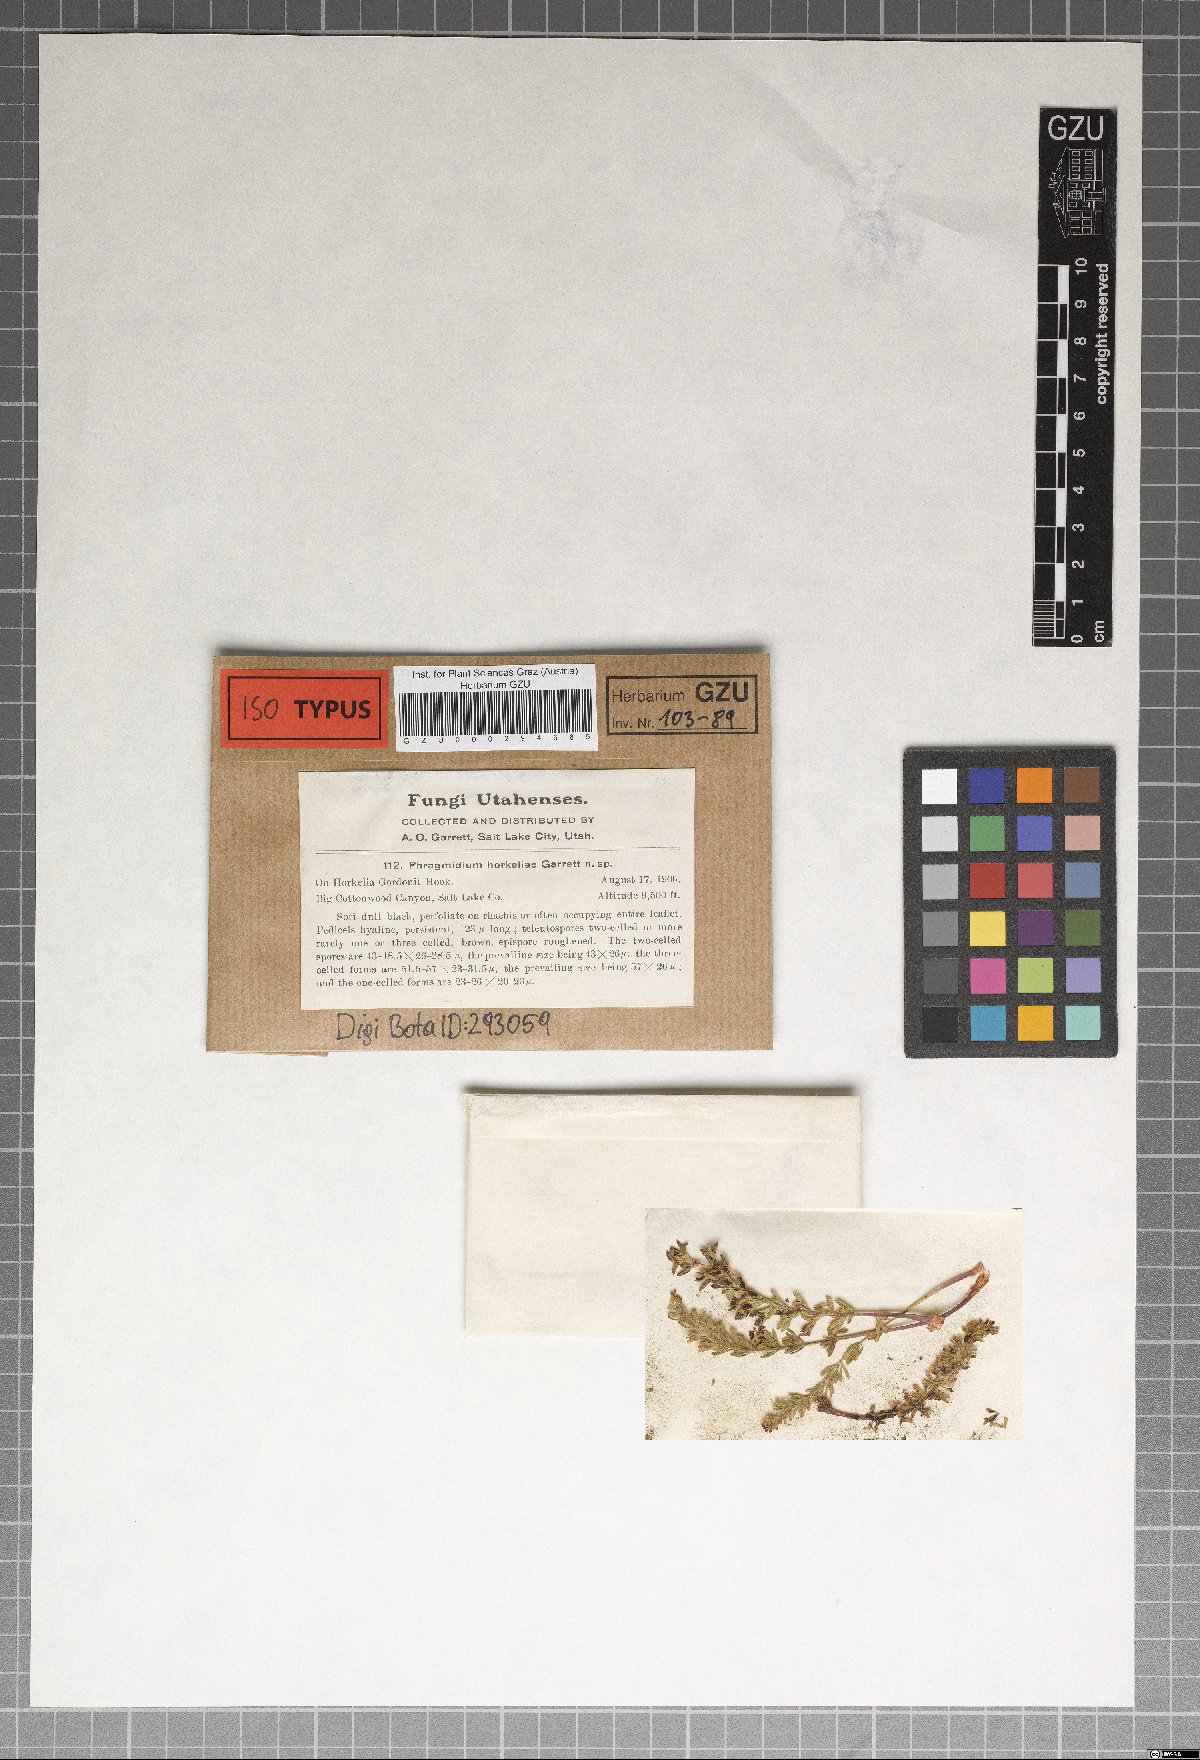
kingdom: Fungi
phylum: Basidiomycota
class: Pucciniomycetes
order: Pucciniales
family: Phragmidiaceae
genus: Phragmidium
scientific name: Phragmidium horkeliae
